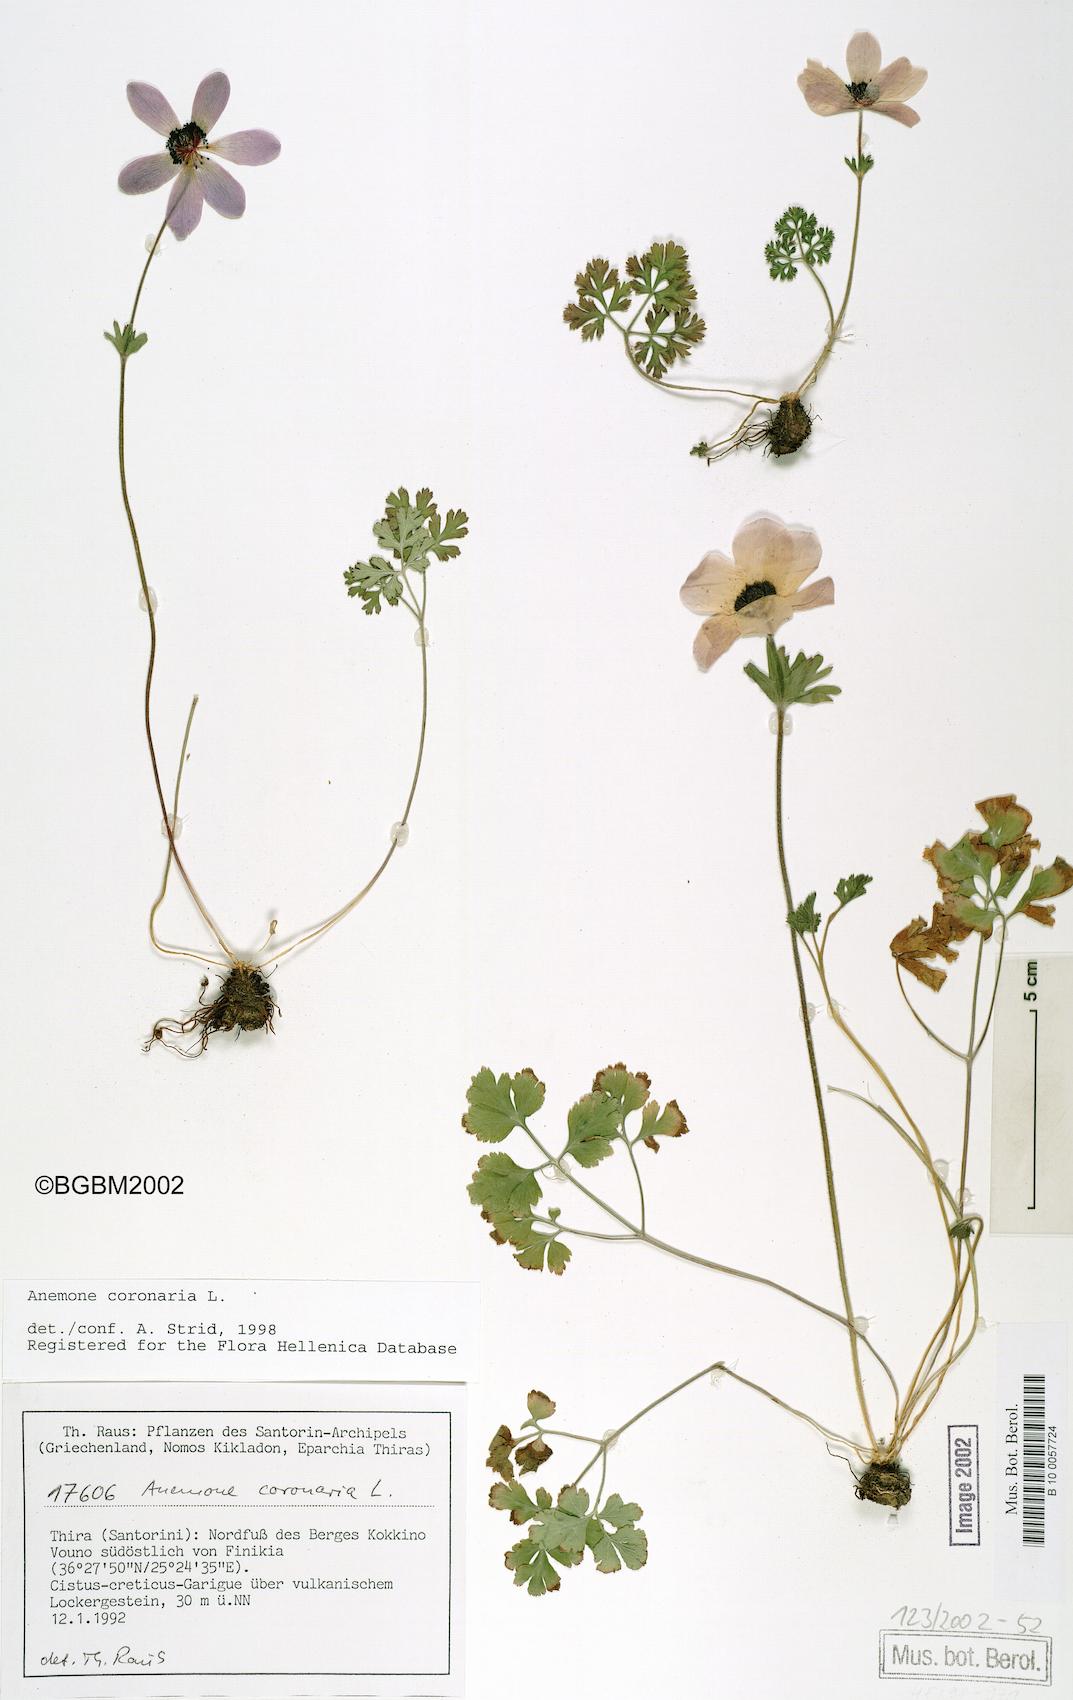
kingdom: Plantae
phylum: Tracheophyta
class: Magnoliopsida
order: Ranunculales
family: Ranunculaceae
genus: Anemone
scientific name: Anemone coronaria
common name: Poppy anemone
